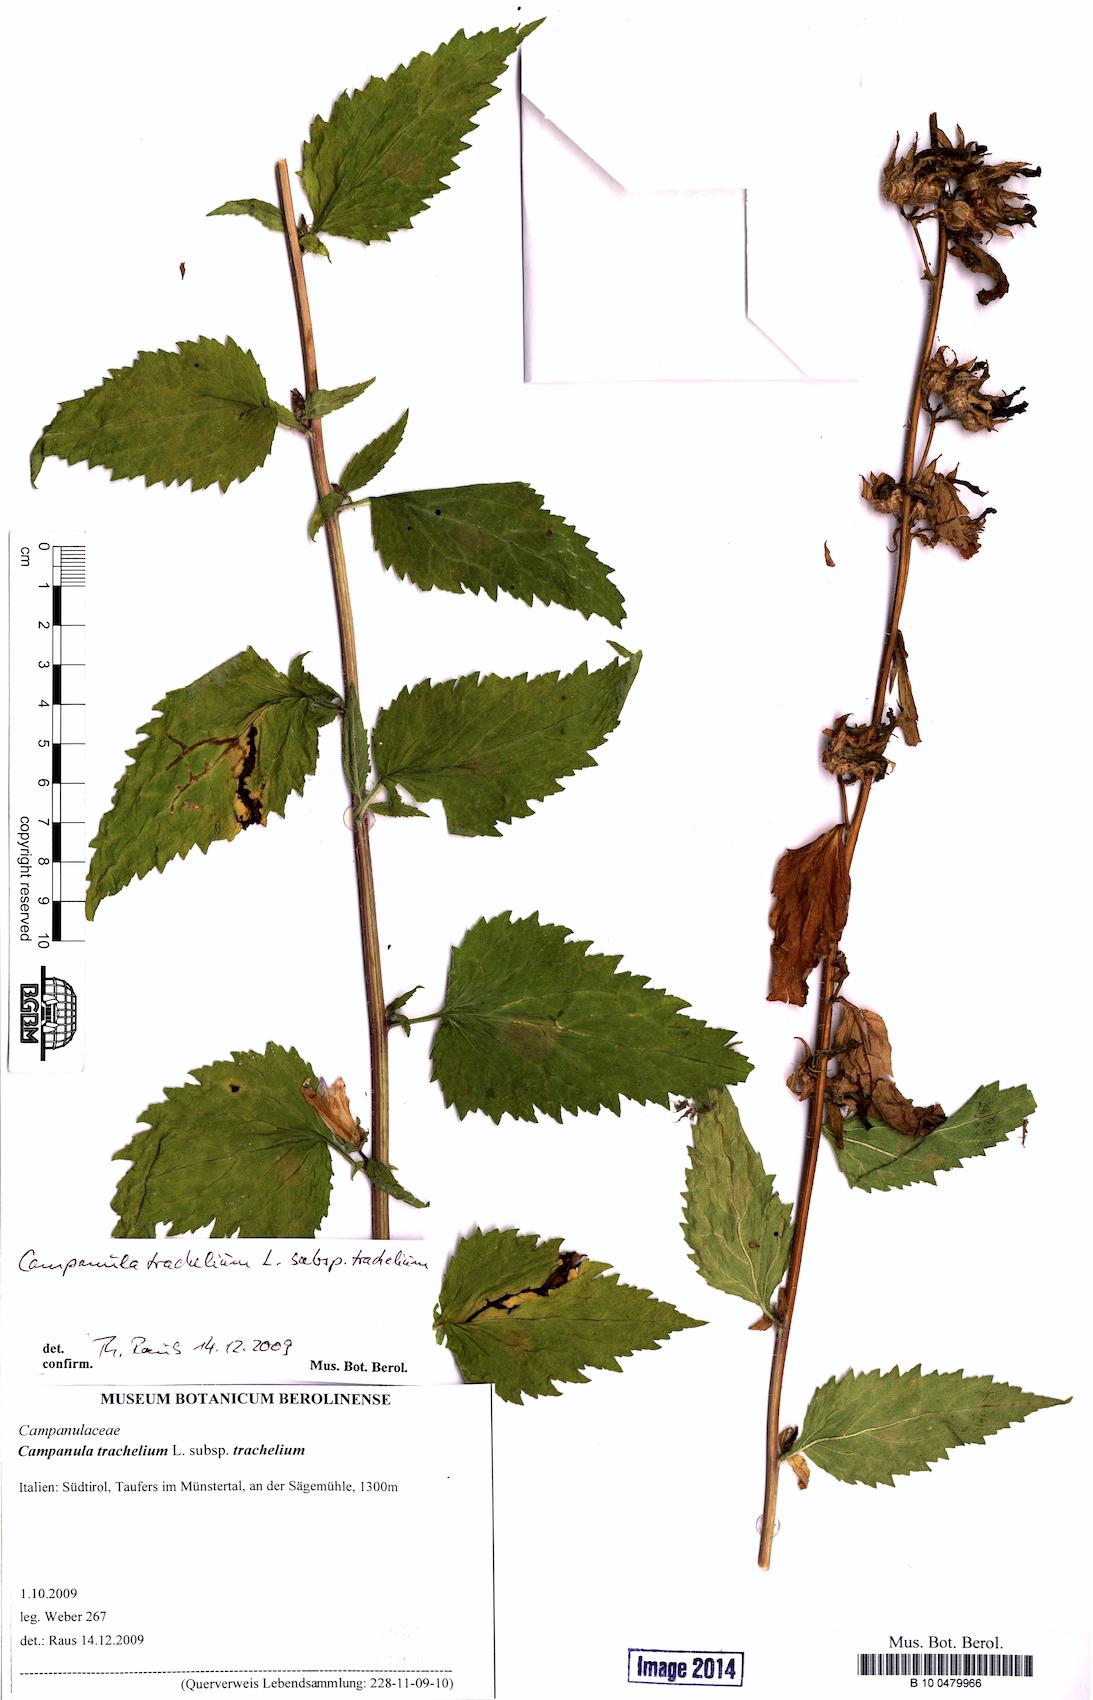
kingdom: Plantae
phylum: Tracheophyta
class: Magnoliopsida
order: Asterales
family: Campanulaceae
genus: Campanula
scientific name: Campanula trachelium
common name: Nettle-leaved bellflower
